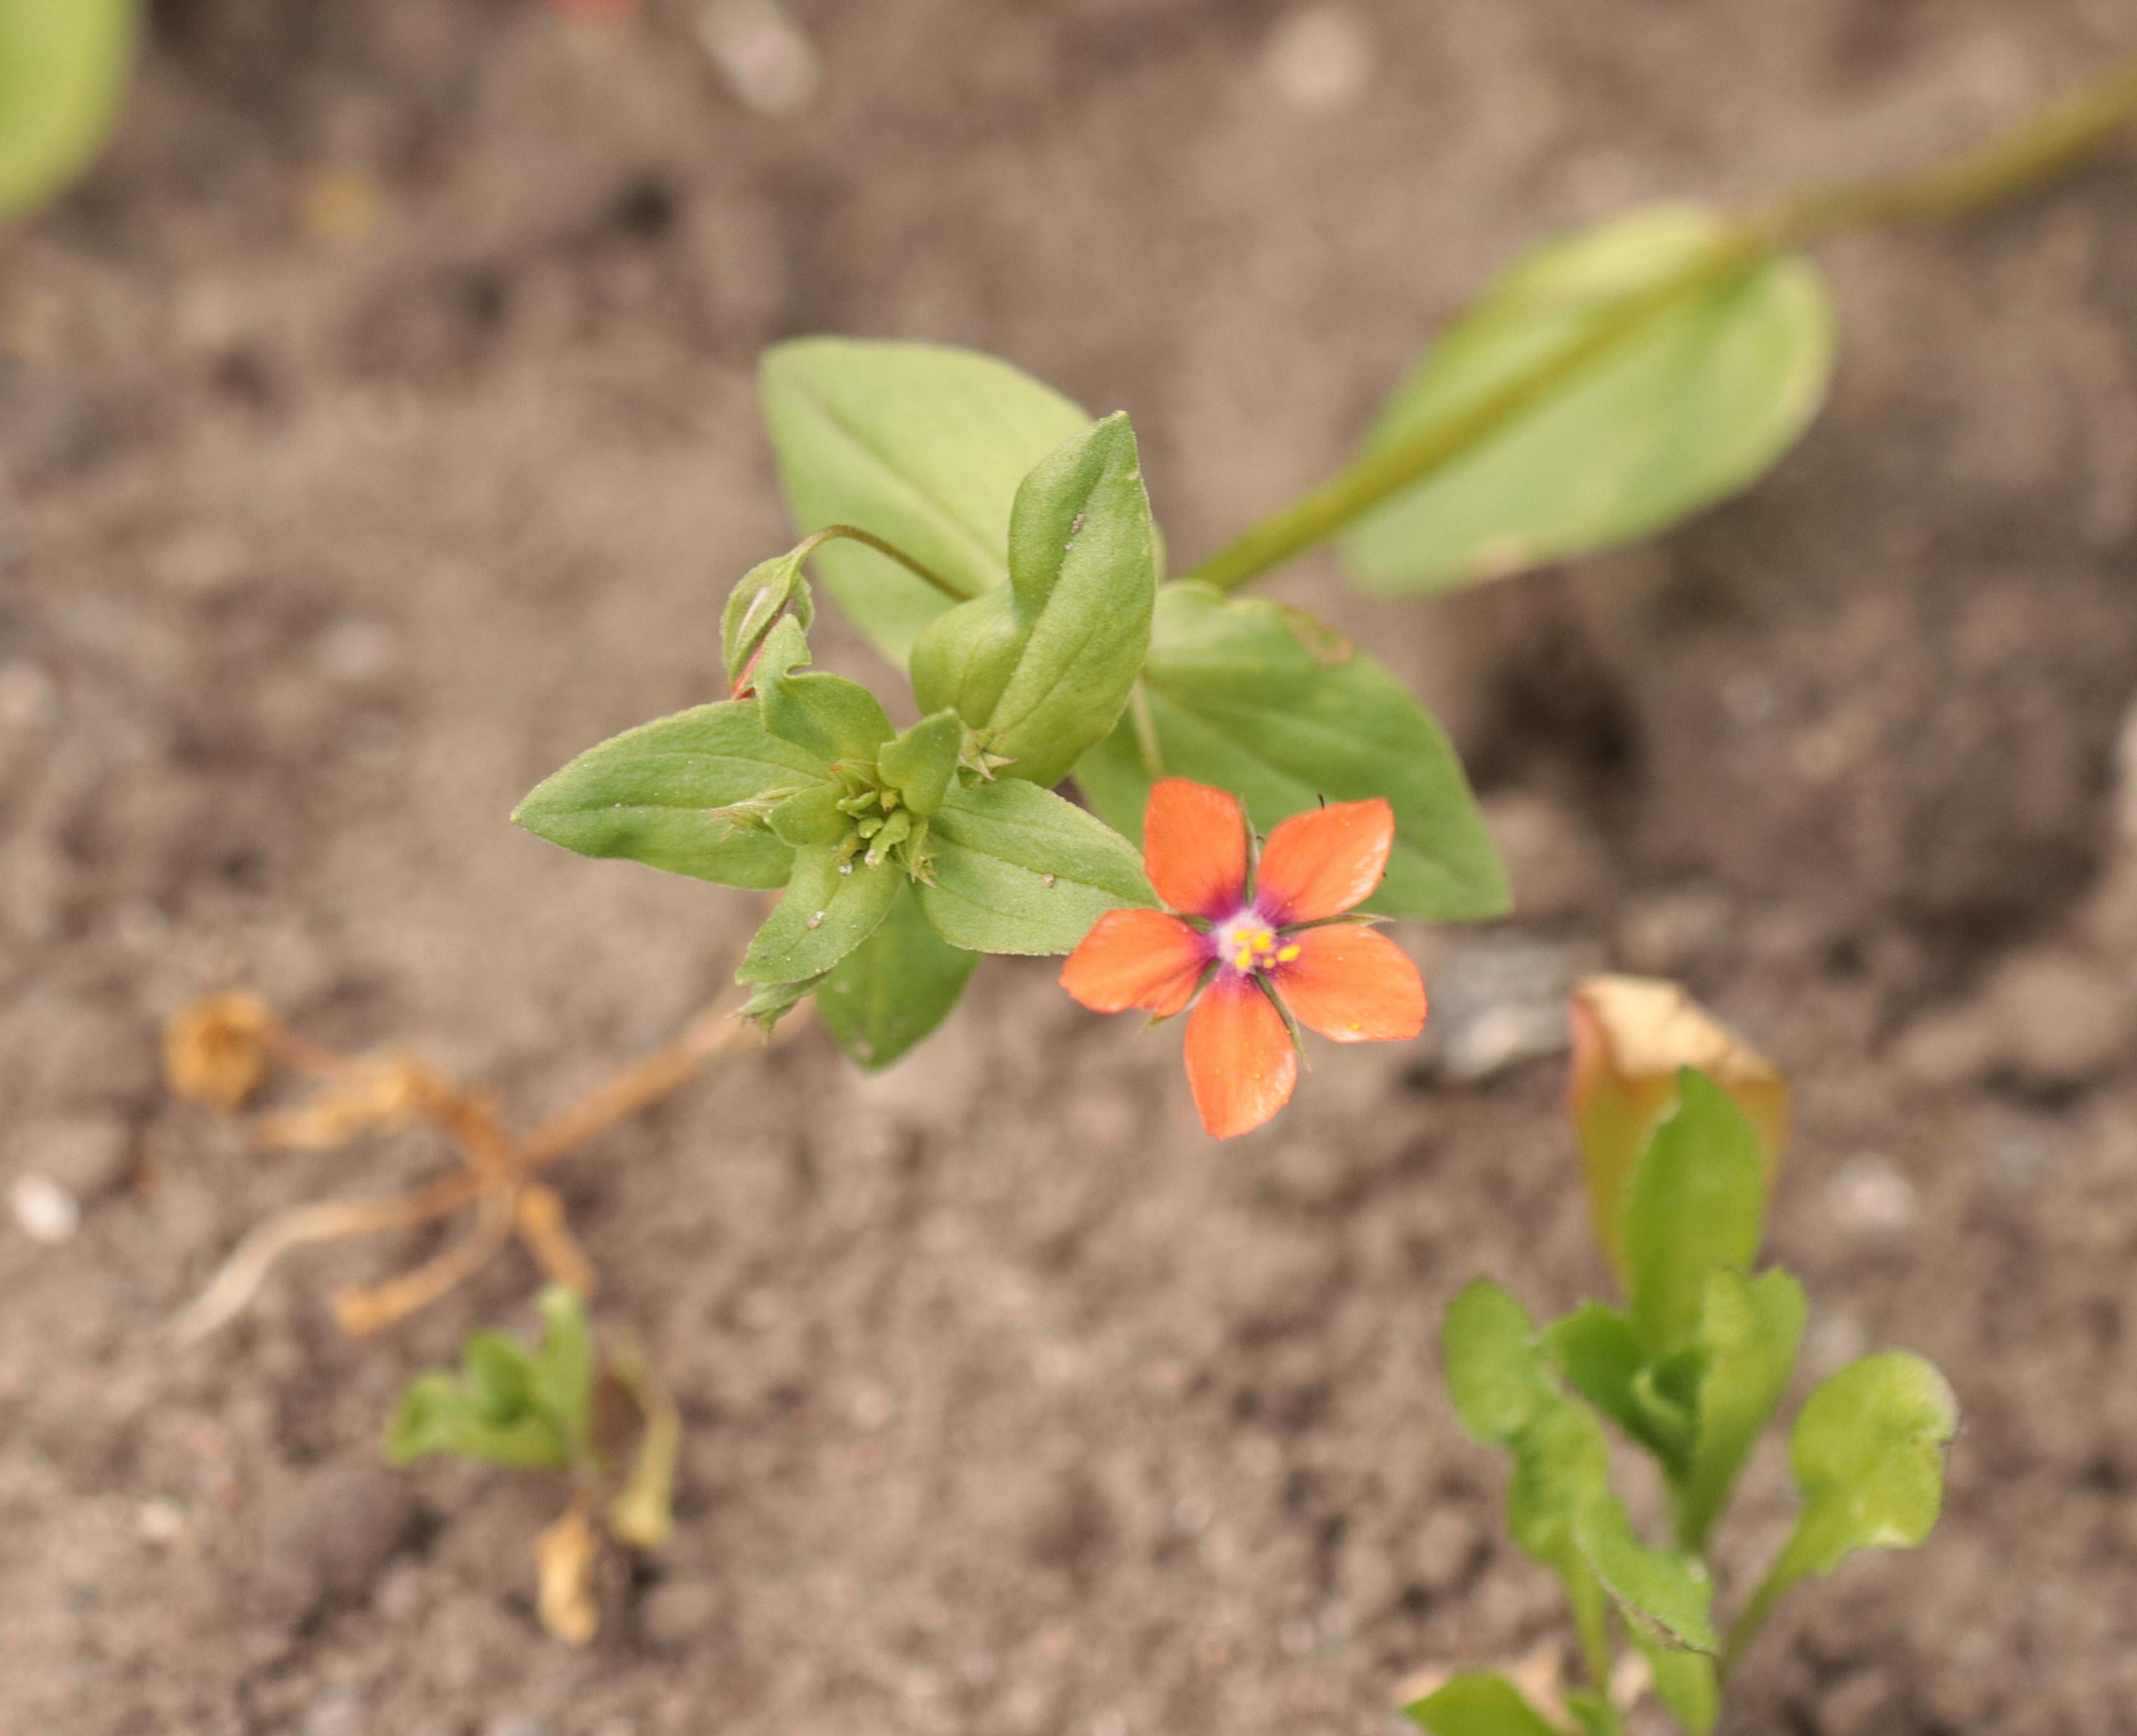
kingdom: Plantae
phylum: Tracheophyta
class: Magnoliopsida
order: Ericales
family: Primulaceae
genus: Lysimachia
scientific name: Lysimachia arvensis
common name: Rød arve
